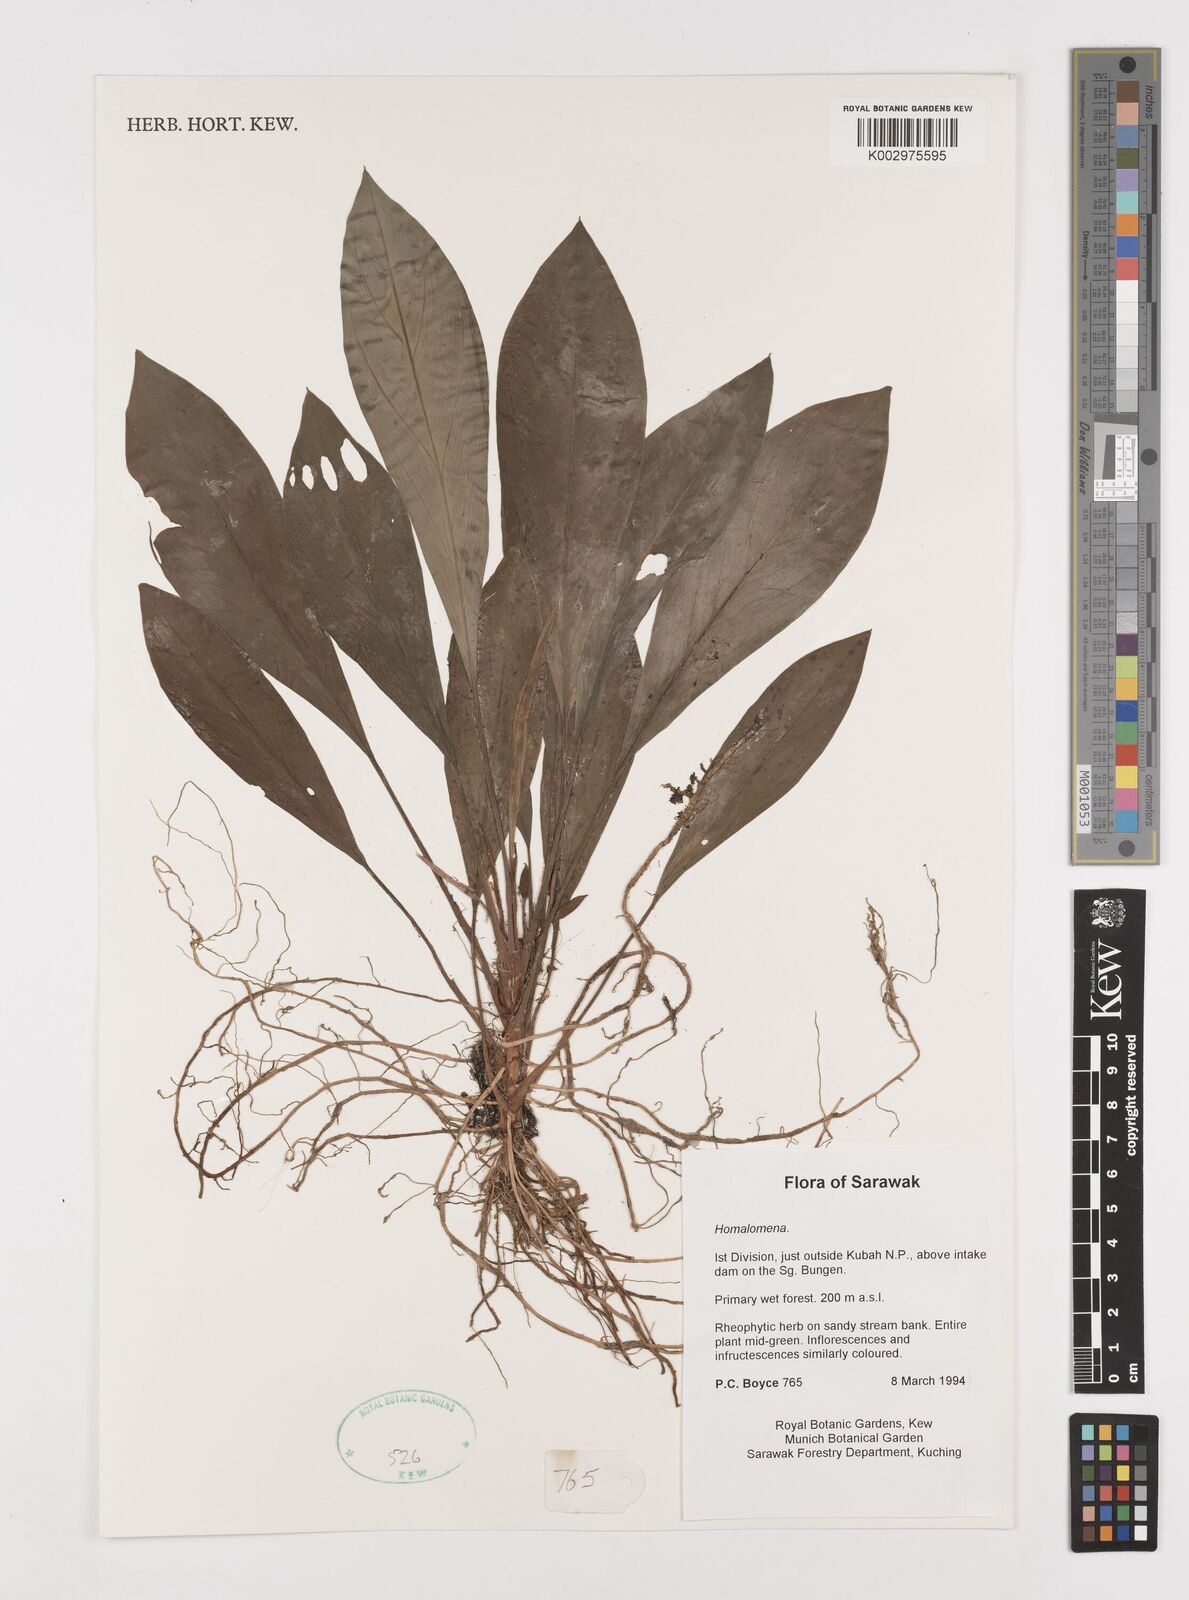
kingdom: Plantae
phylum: Tracheophyta
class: Liliopsida
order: Alismatales
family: Araceae
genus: Homalomena
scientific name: Homalomena
